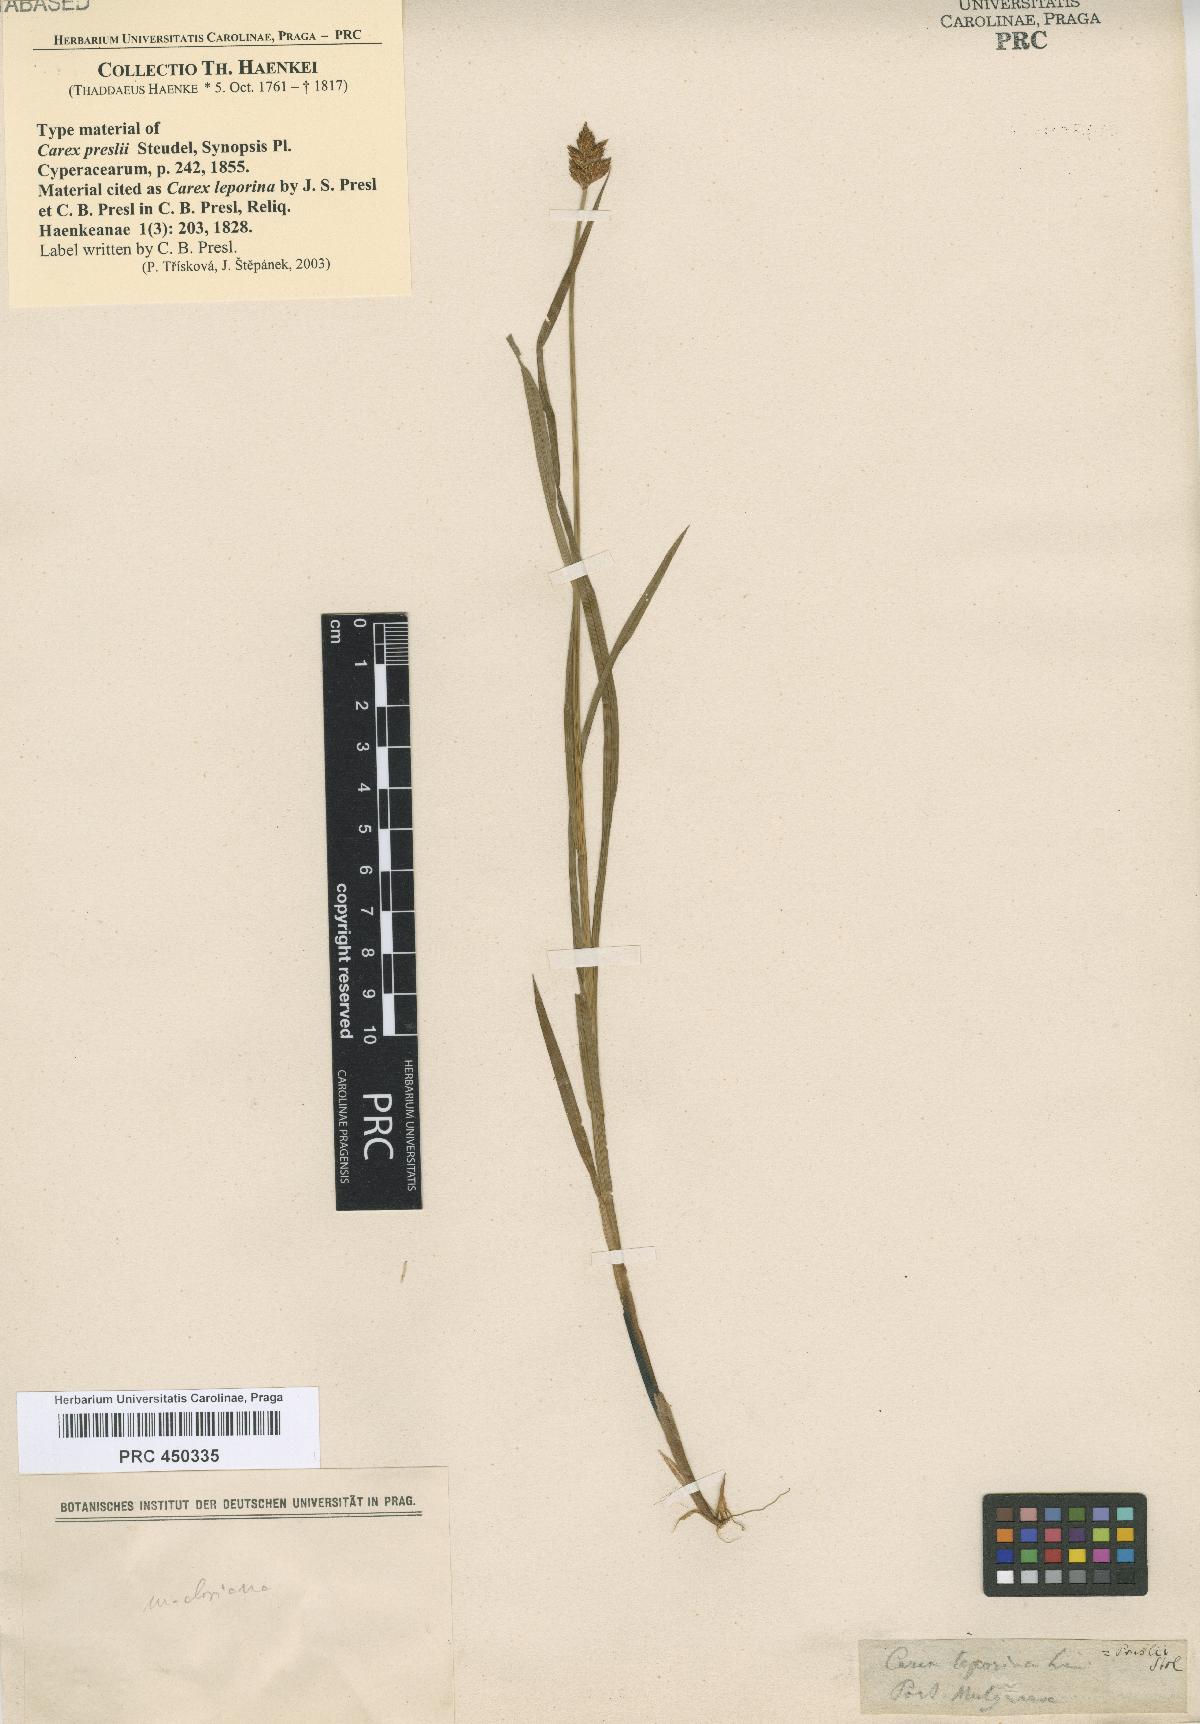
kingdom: Plantae
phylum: Tracheophyta
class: Liliopsida
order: Poales
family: Cyperaceae
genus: Carex
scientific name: Carex preslii
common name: Presl's sedge
